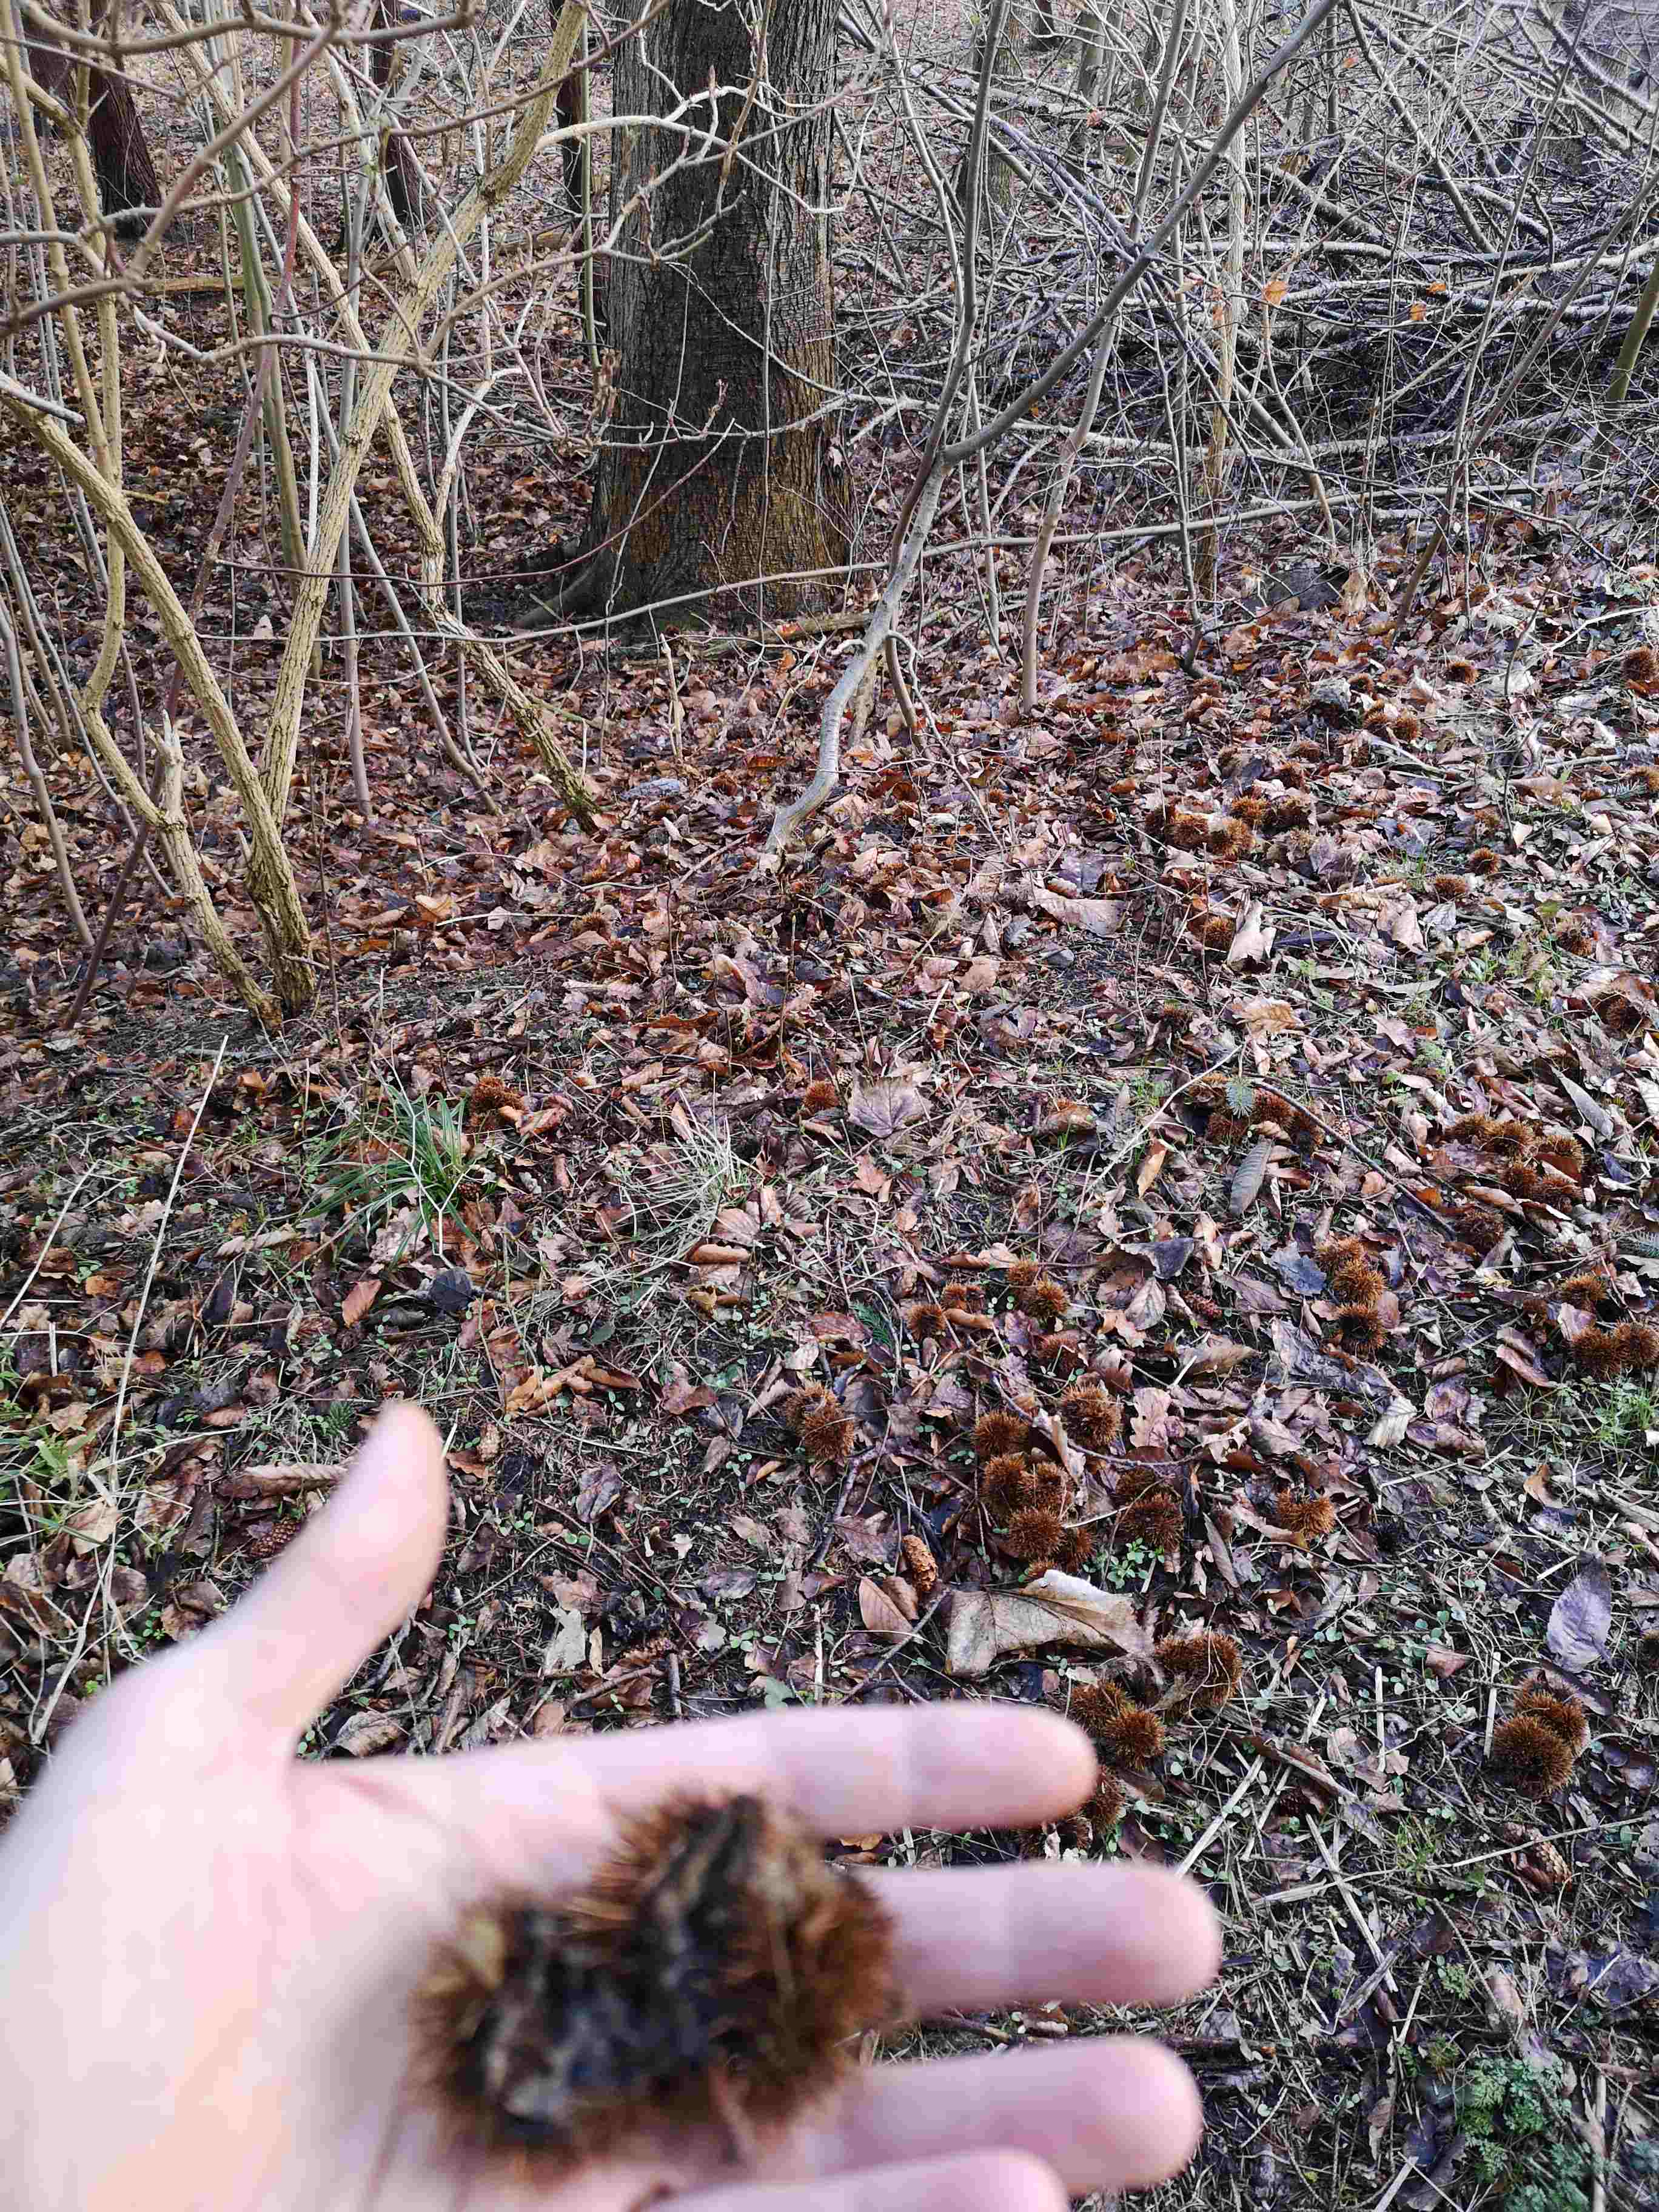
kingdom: Fungi
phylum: Basidiomycota
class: Agaricomycetes
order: Agaricales
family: Typhulaceae
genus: Sclerotium
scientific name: Sclerotium
